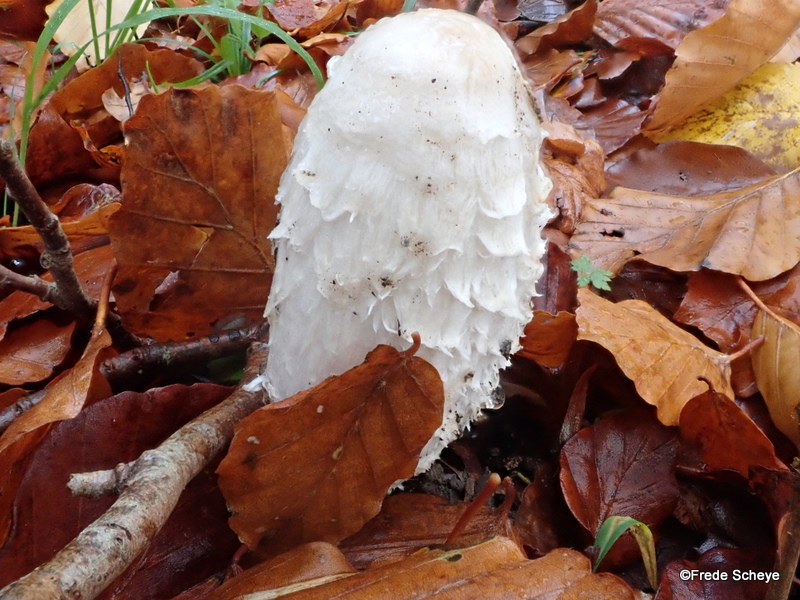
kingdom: Fungi
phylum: Basidiomycota
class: Agaricomycetes
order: Agaricales
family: Agaricaceae
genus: Coprinus
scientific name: Coprinus comatus
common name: stor parykhat
